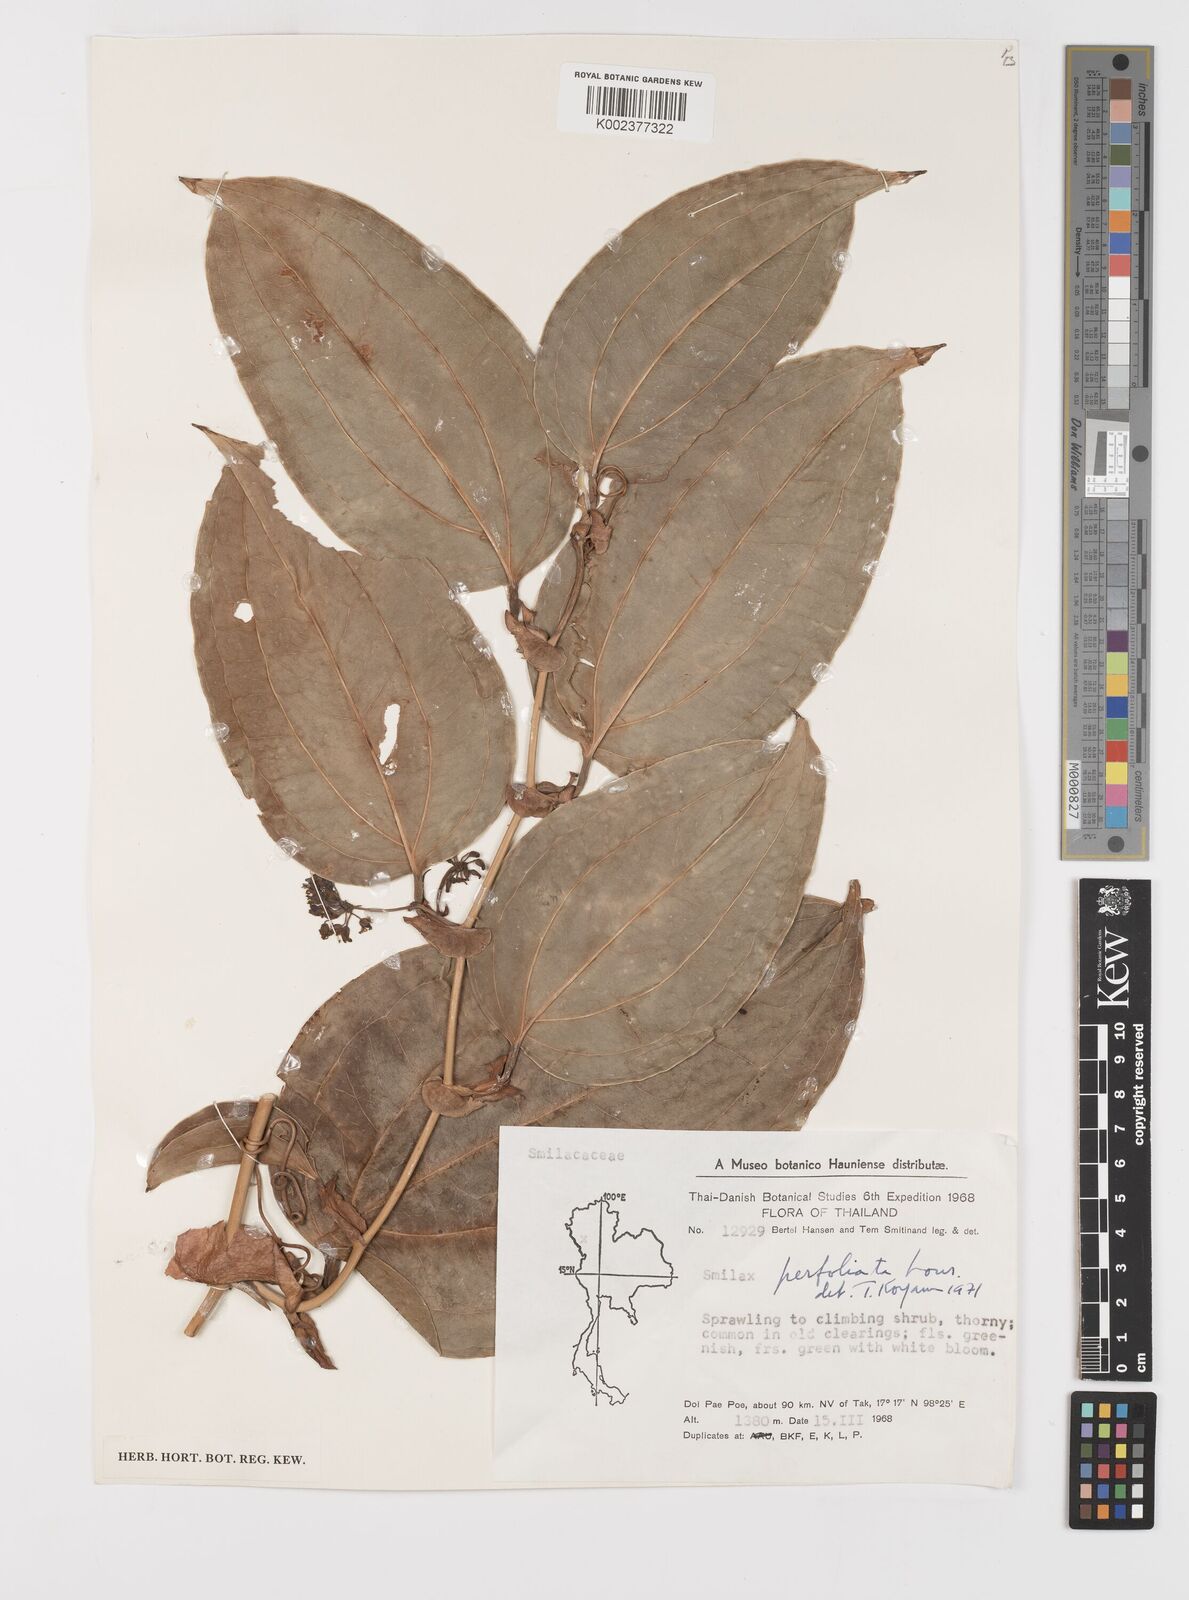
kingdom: Plantae
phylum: Tracheophyta
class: Liliopsida
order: Liliales
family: Smilacaceae
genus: Smilax
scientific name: Smilax perfoliata
